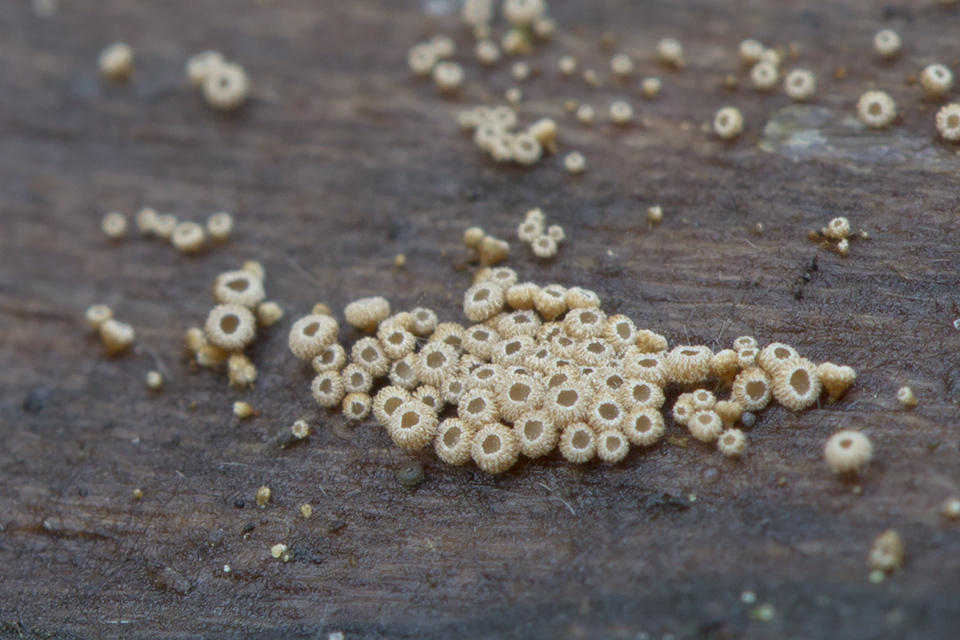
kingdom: Fungi
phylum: Basidiomycota
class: Agaricomycetes
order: Agaricales
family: Niaceae
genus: Merismodes
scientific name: Merismodes anomala
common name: almindelig læderskål
